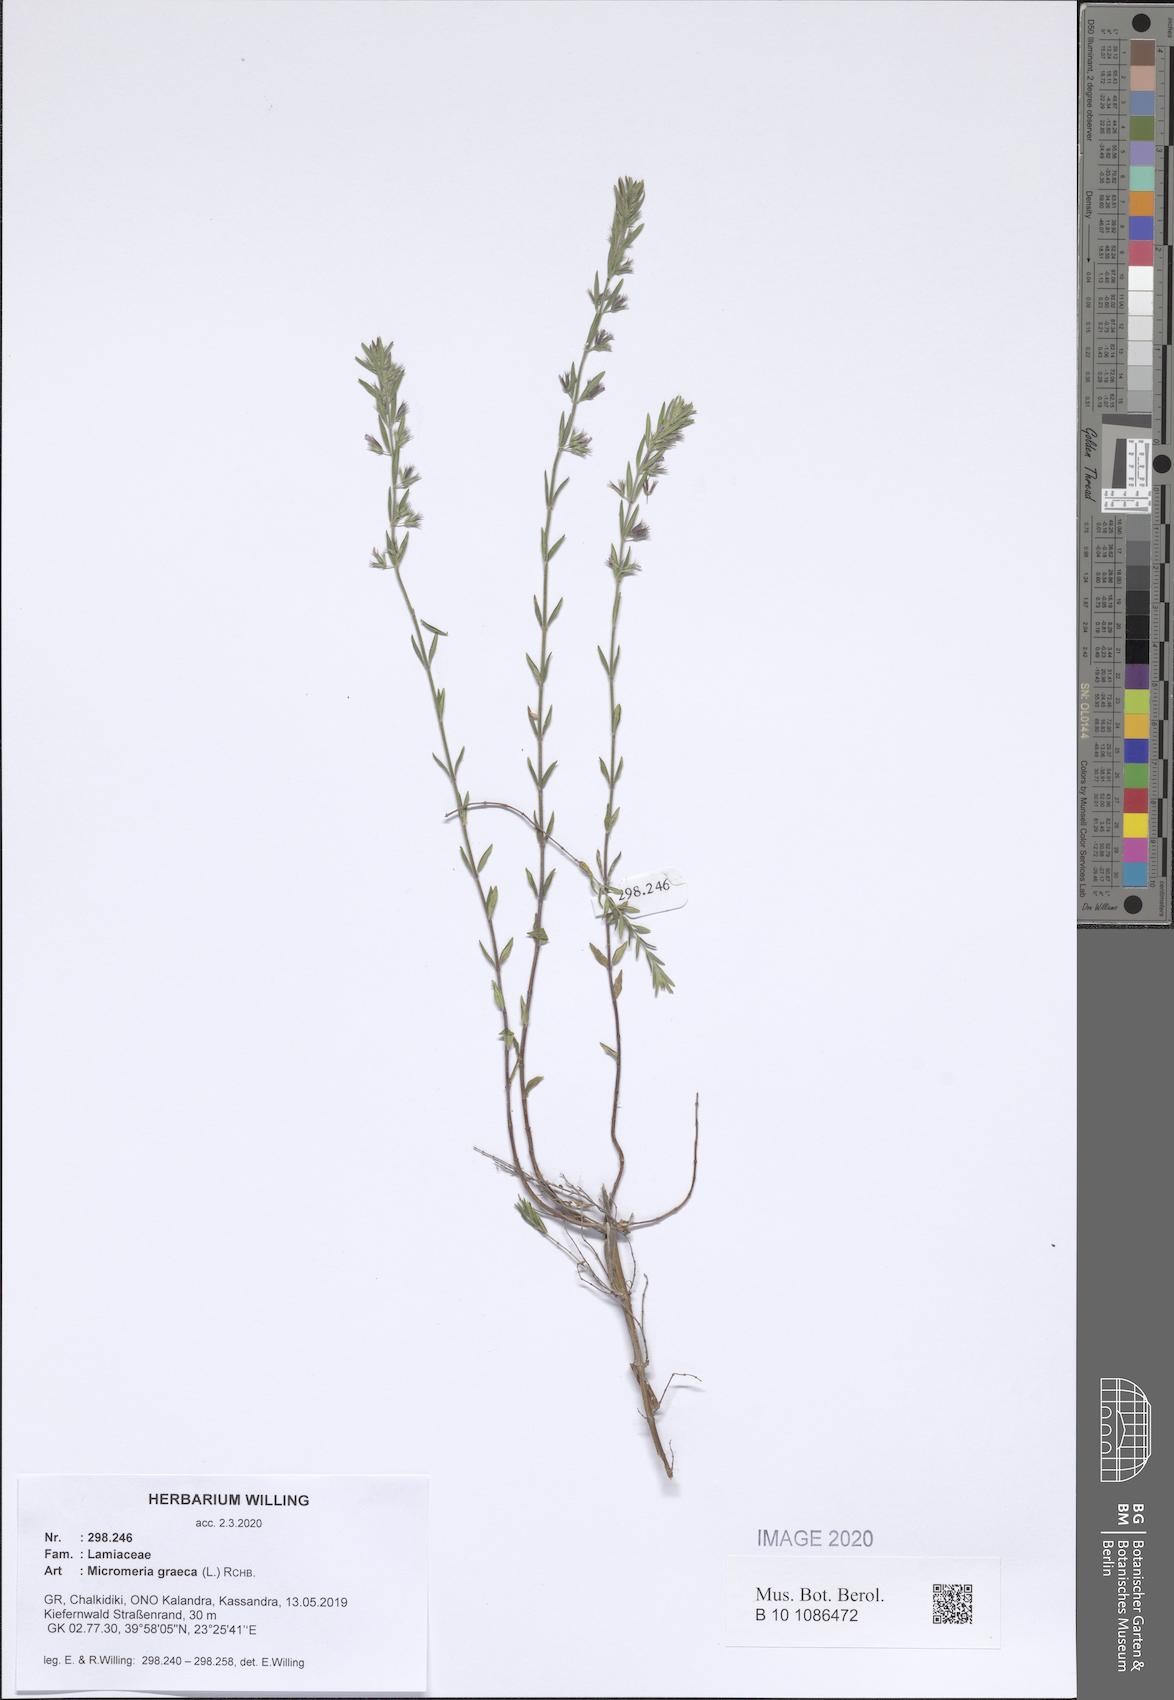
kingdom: Plantae
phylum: Tracheophyta
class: Magnoliopsida
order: Lamiales
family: Lamiaceae
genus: Micromeria
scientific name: Micromeria graeca
